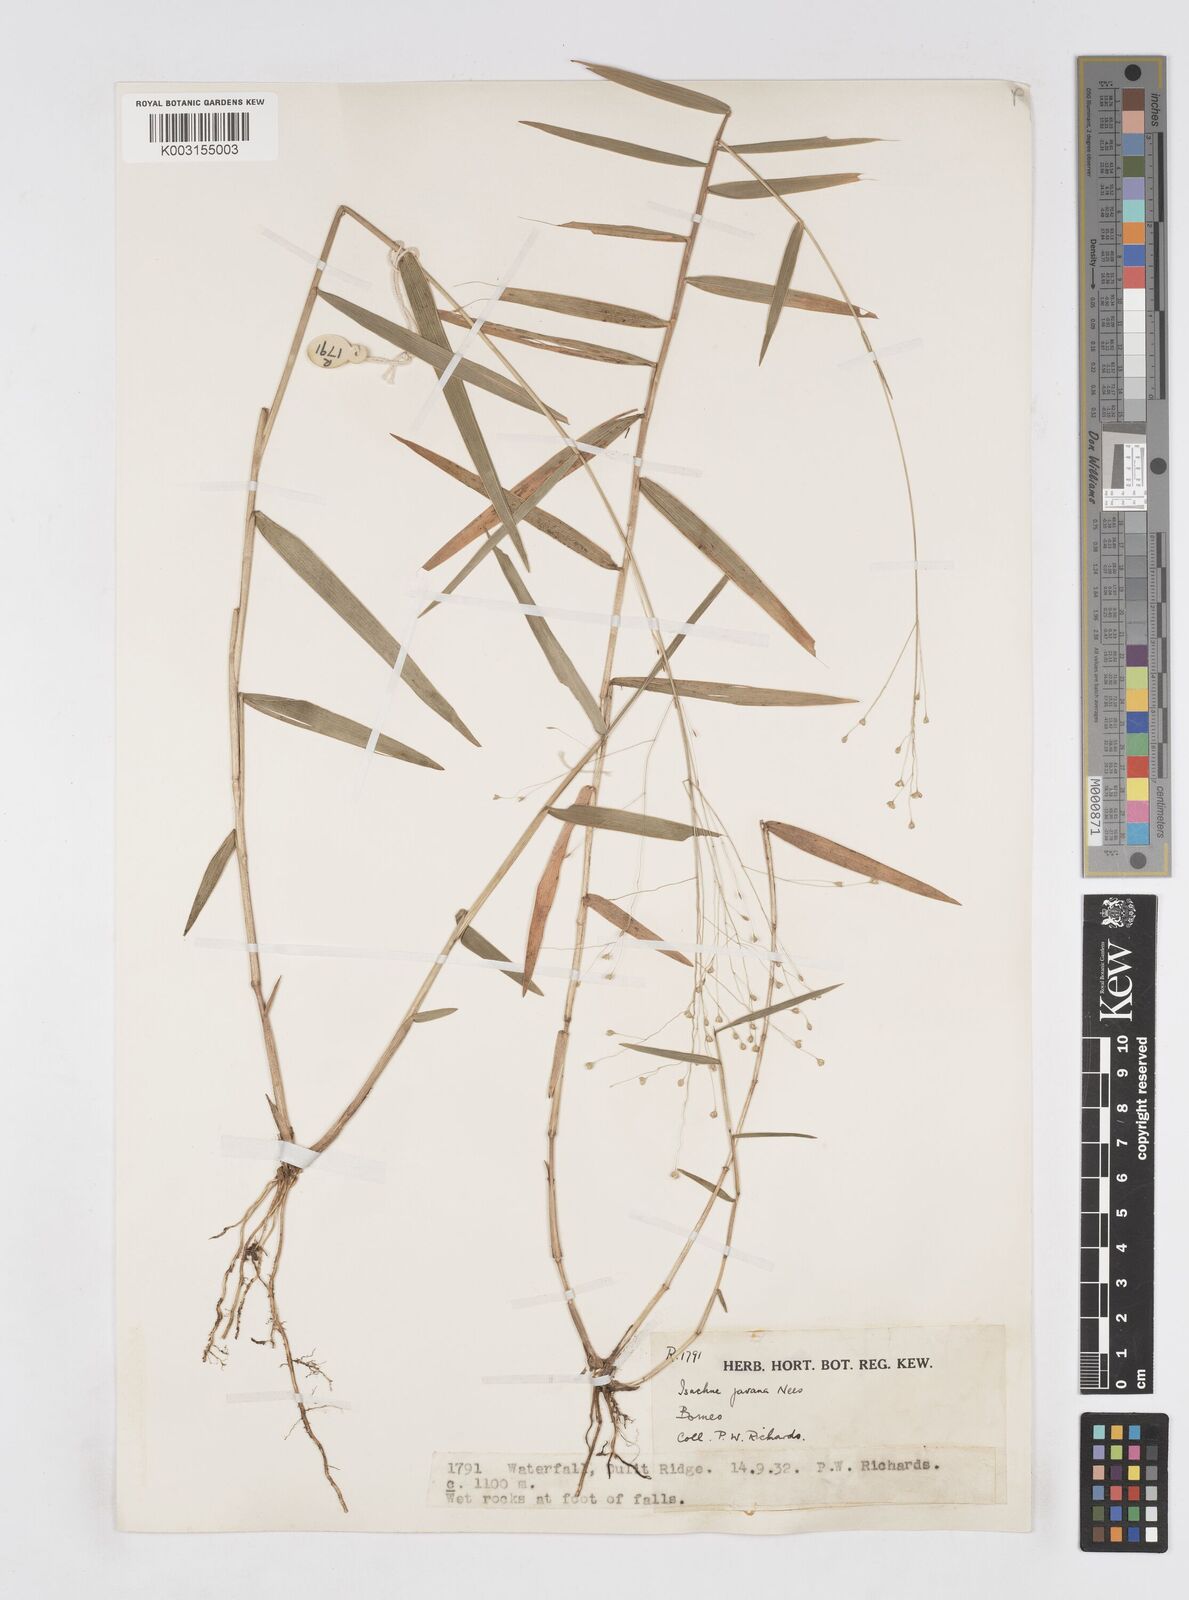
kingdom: Plantae
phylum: Tracheophyta
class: Liliopsida
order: Poales
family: Poaceae
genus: Isachne
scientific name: Isachne kinabaluensis
